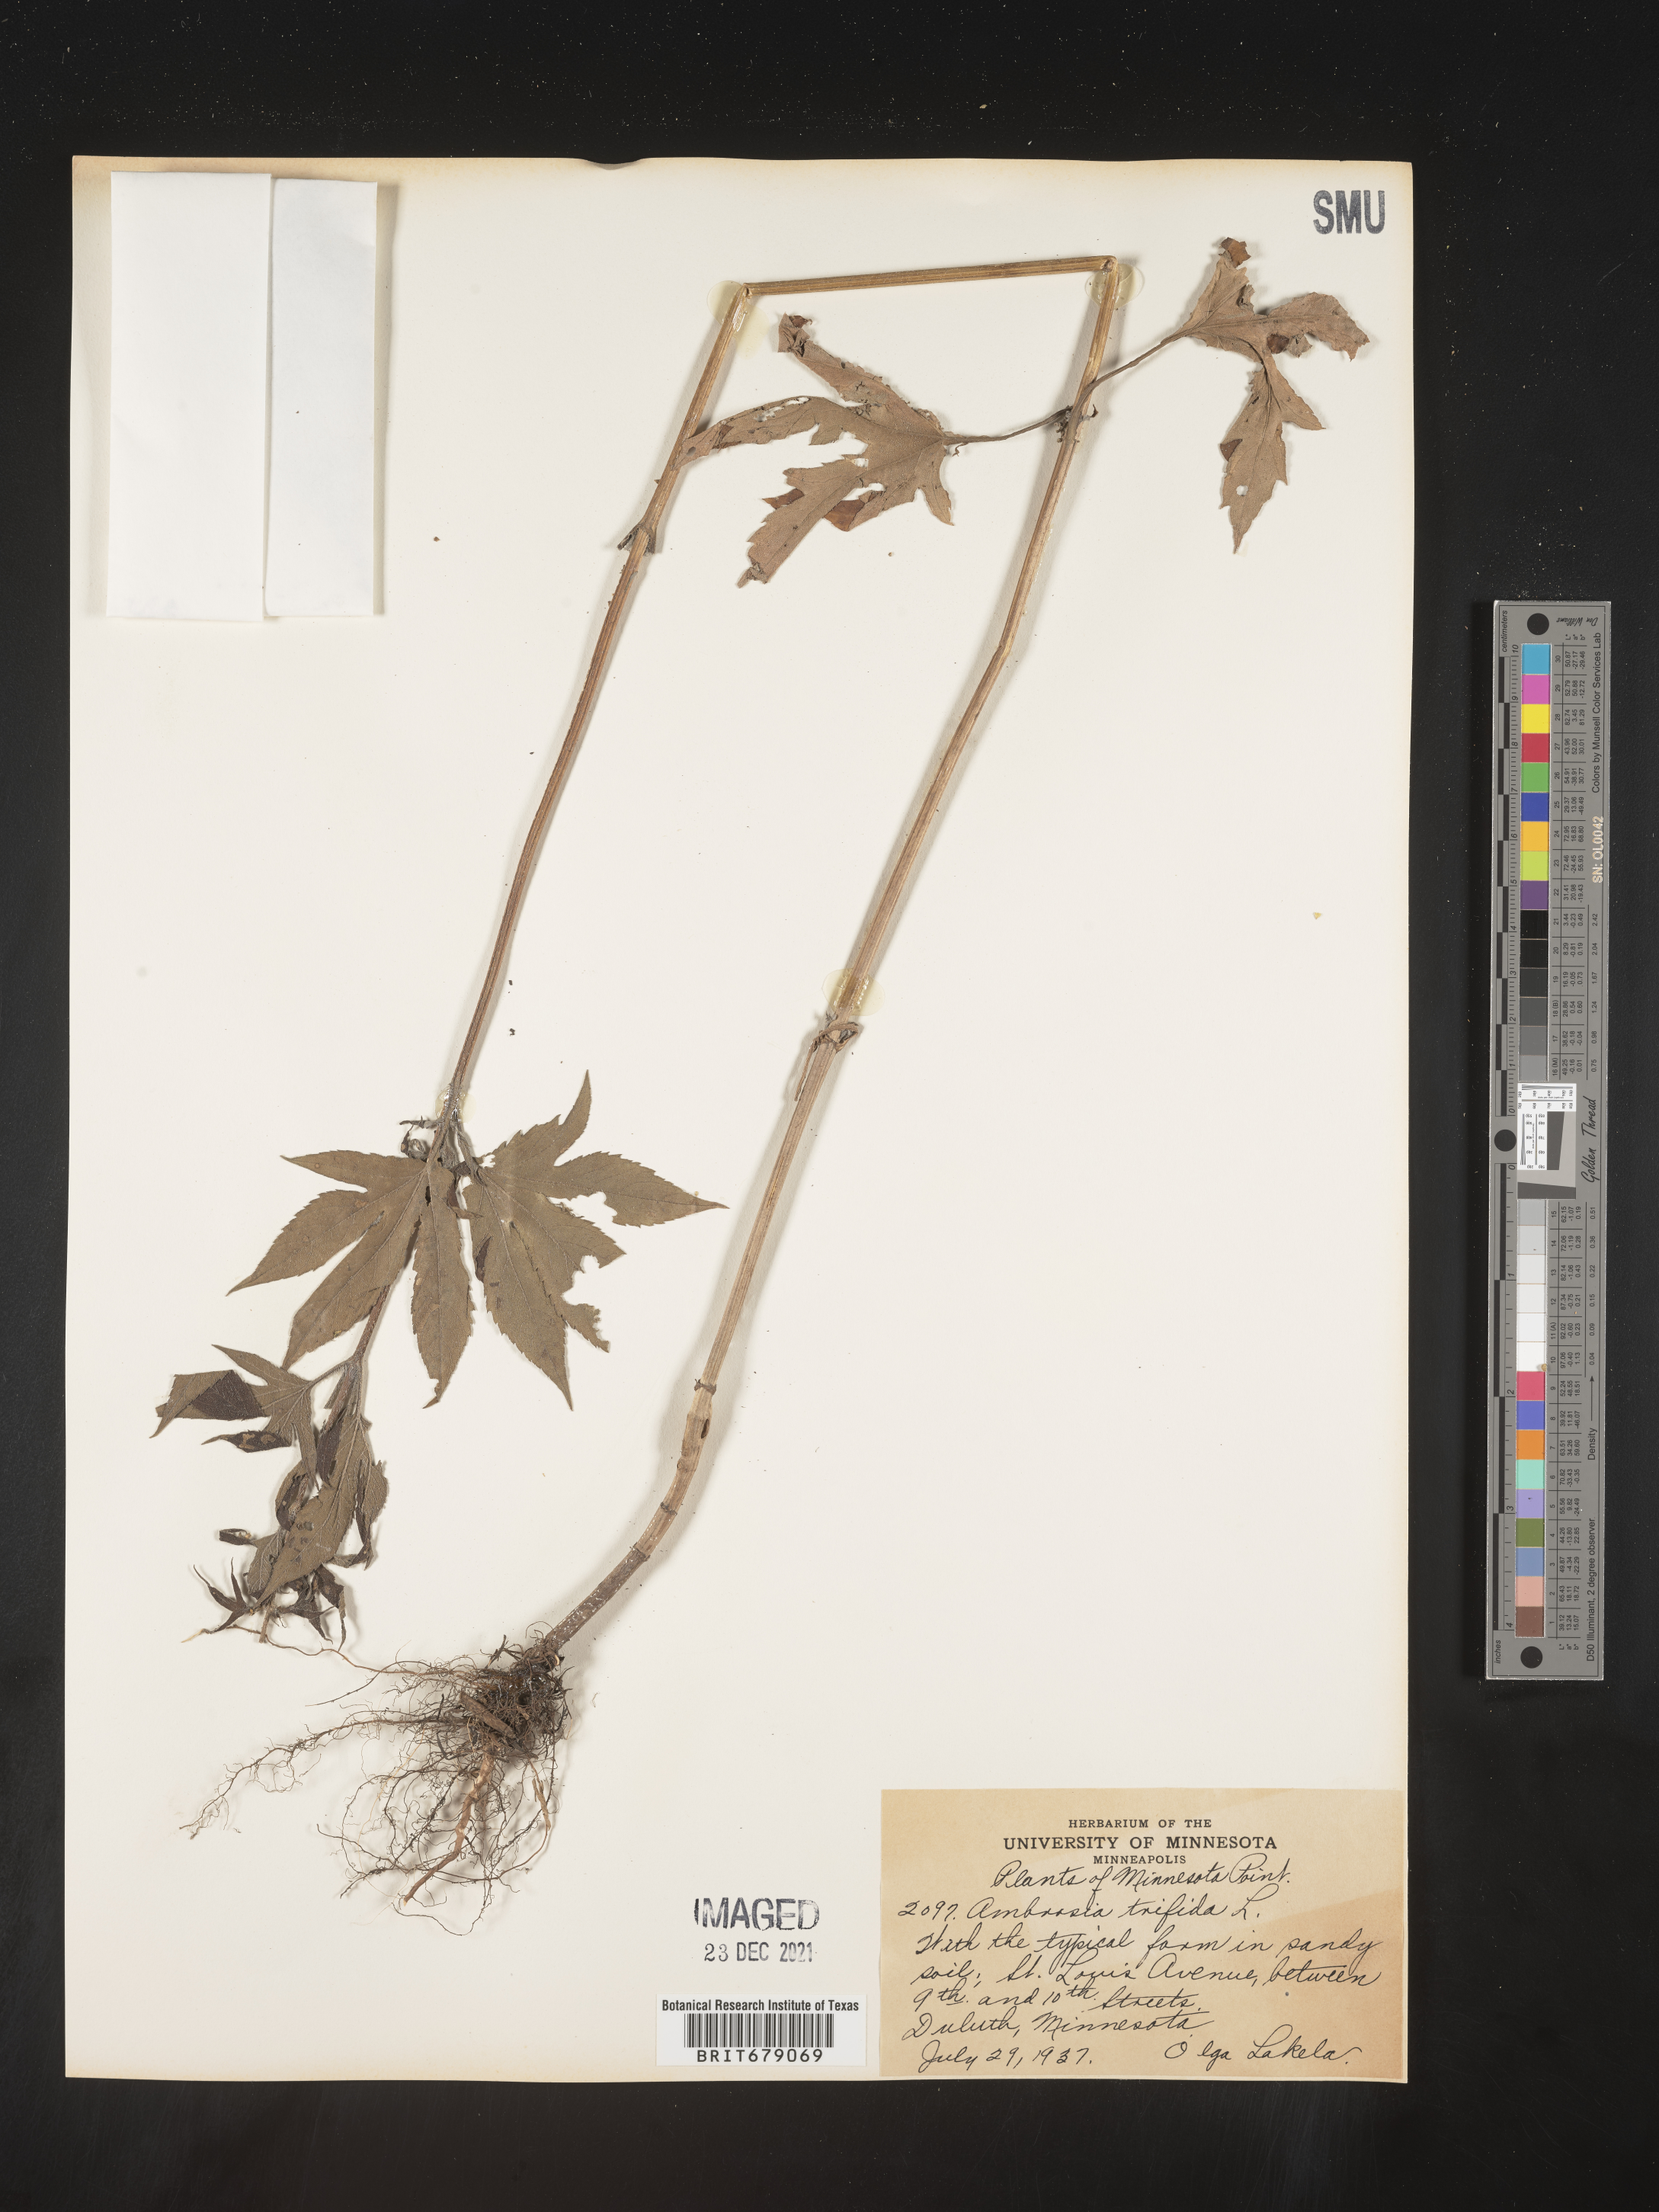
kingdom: Plantae
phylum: Tracheophyta
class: Magnoliopsida
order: Asterales
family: Asteraceae
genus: Ambrosia
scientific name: Ambrosia trifida
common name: Giant ragweed
